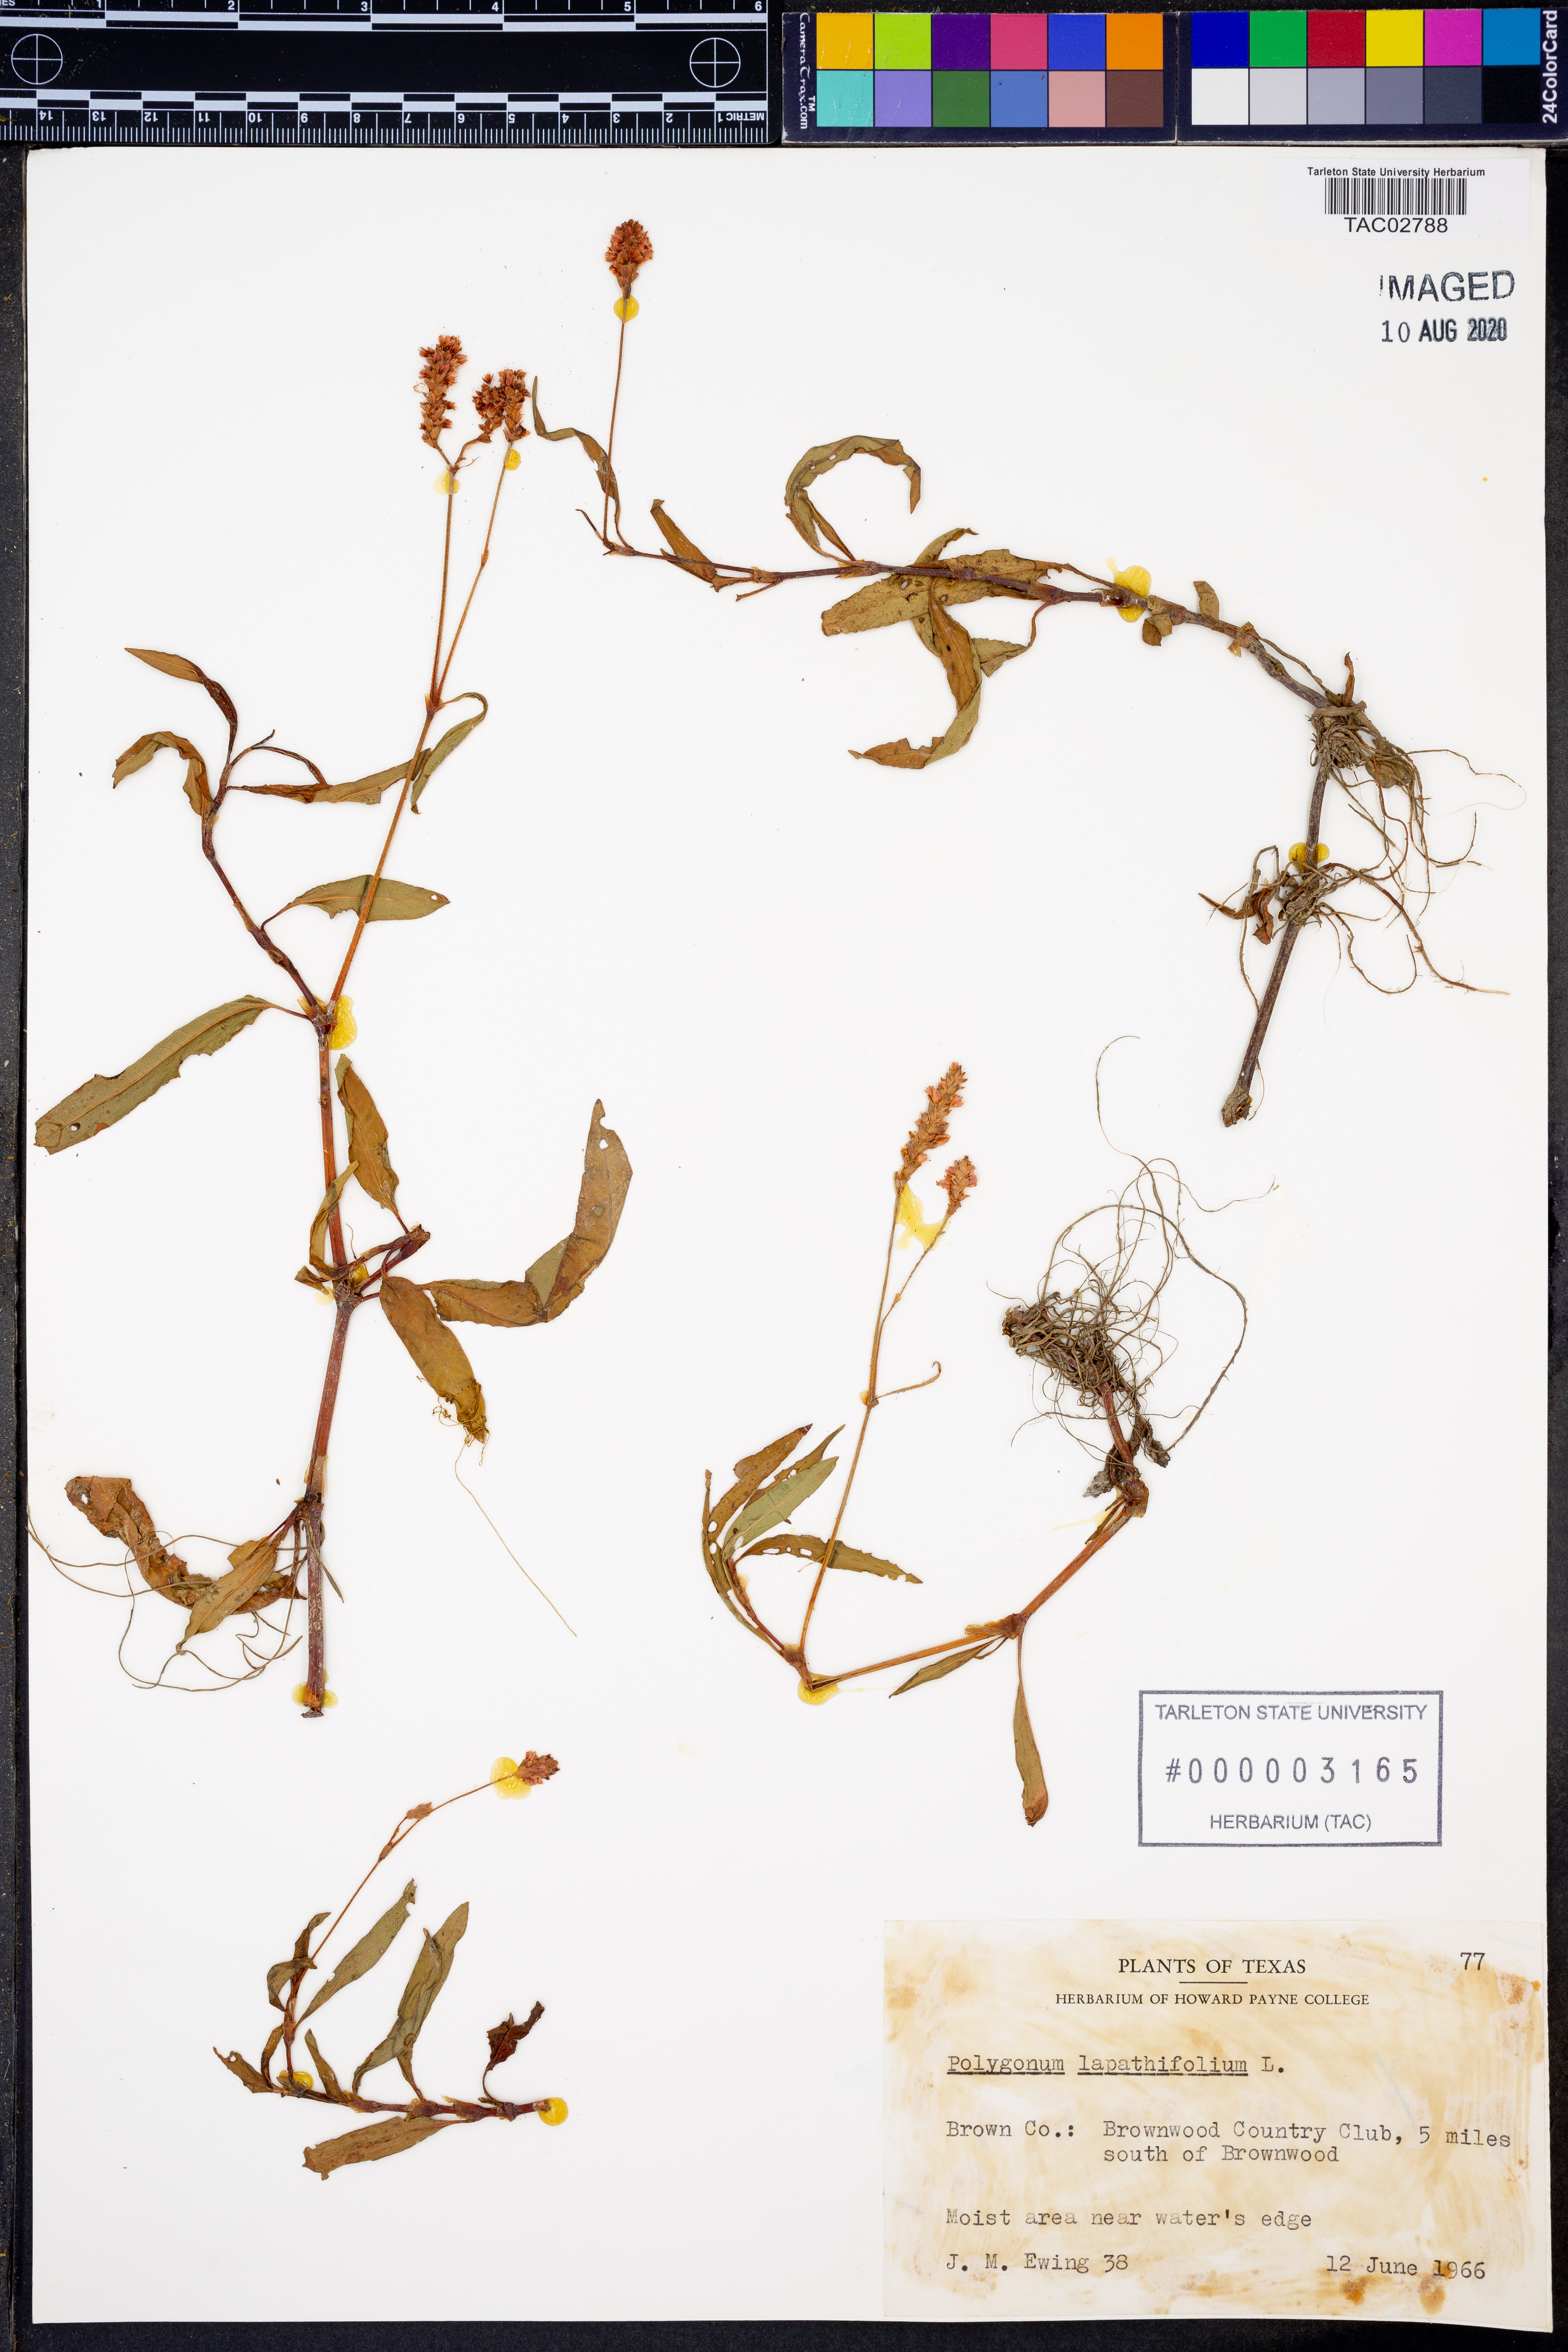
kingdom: Plantae
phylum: Tracheophyta
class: Magnoliopsida
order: Caryophyllales
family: Polygonaceae
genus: Persicaria
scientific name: Persicaria lapathifolia
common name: Curlytop knotweed
